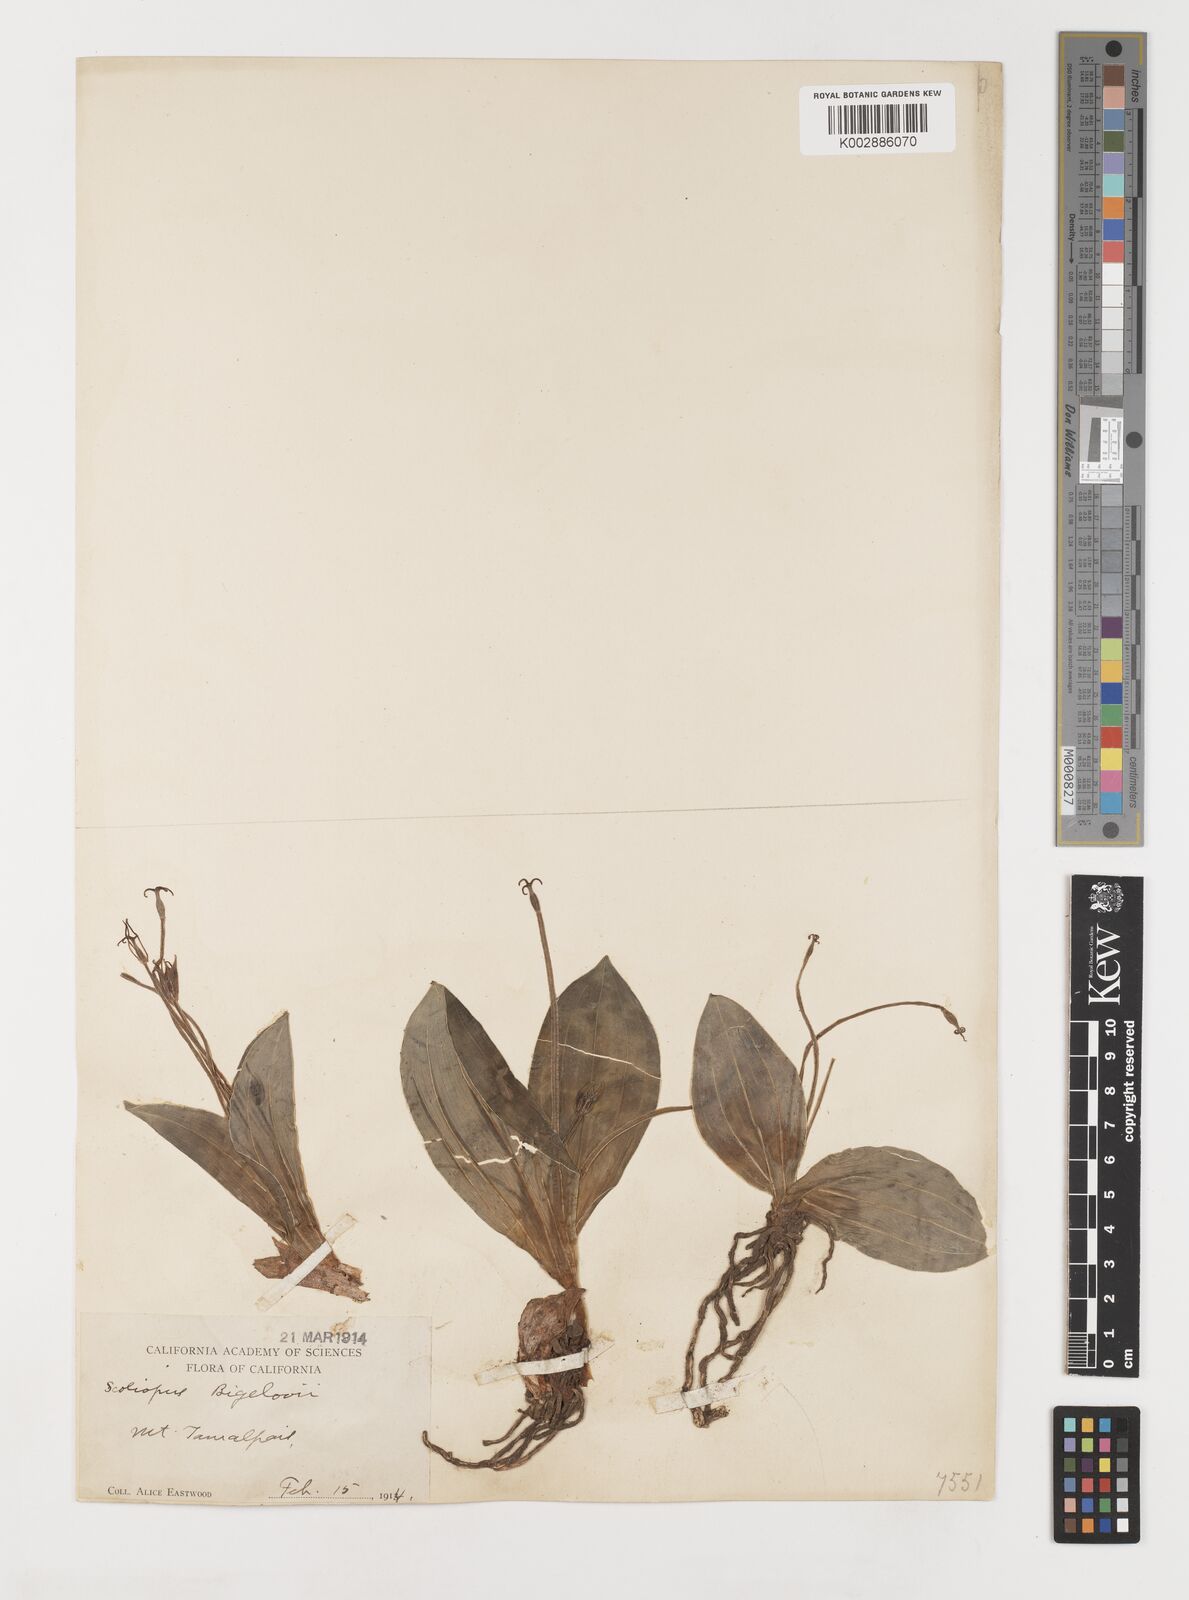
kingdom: Plantae
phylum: Tracheophyta
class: Liliopsida
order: Liliales
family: Liliaceae
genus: Scoliopus
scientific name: Scoliopus bigelovii
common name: Foetid adder's-tongue
